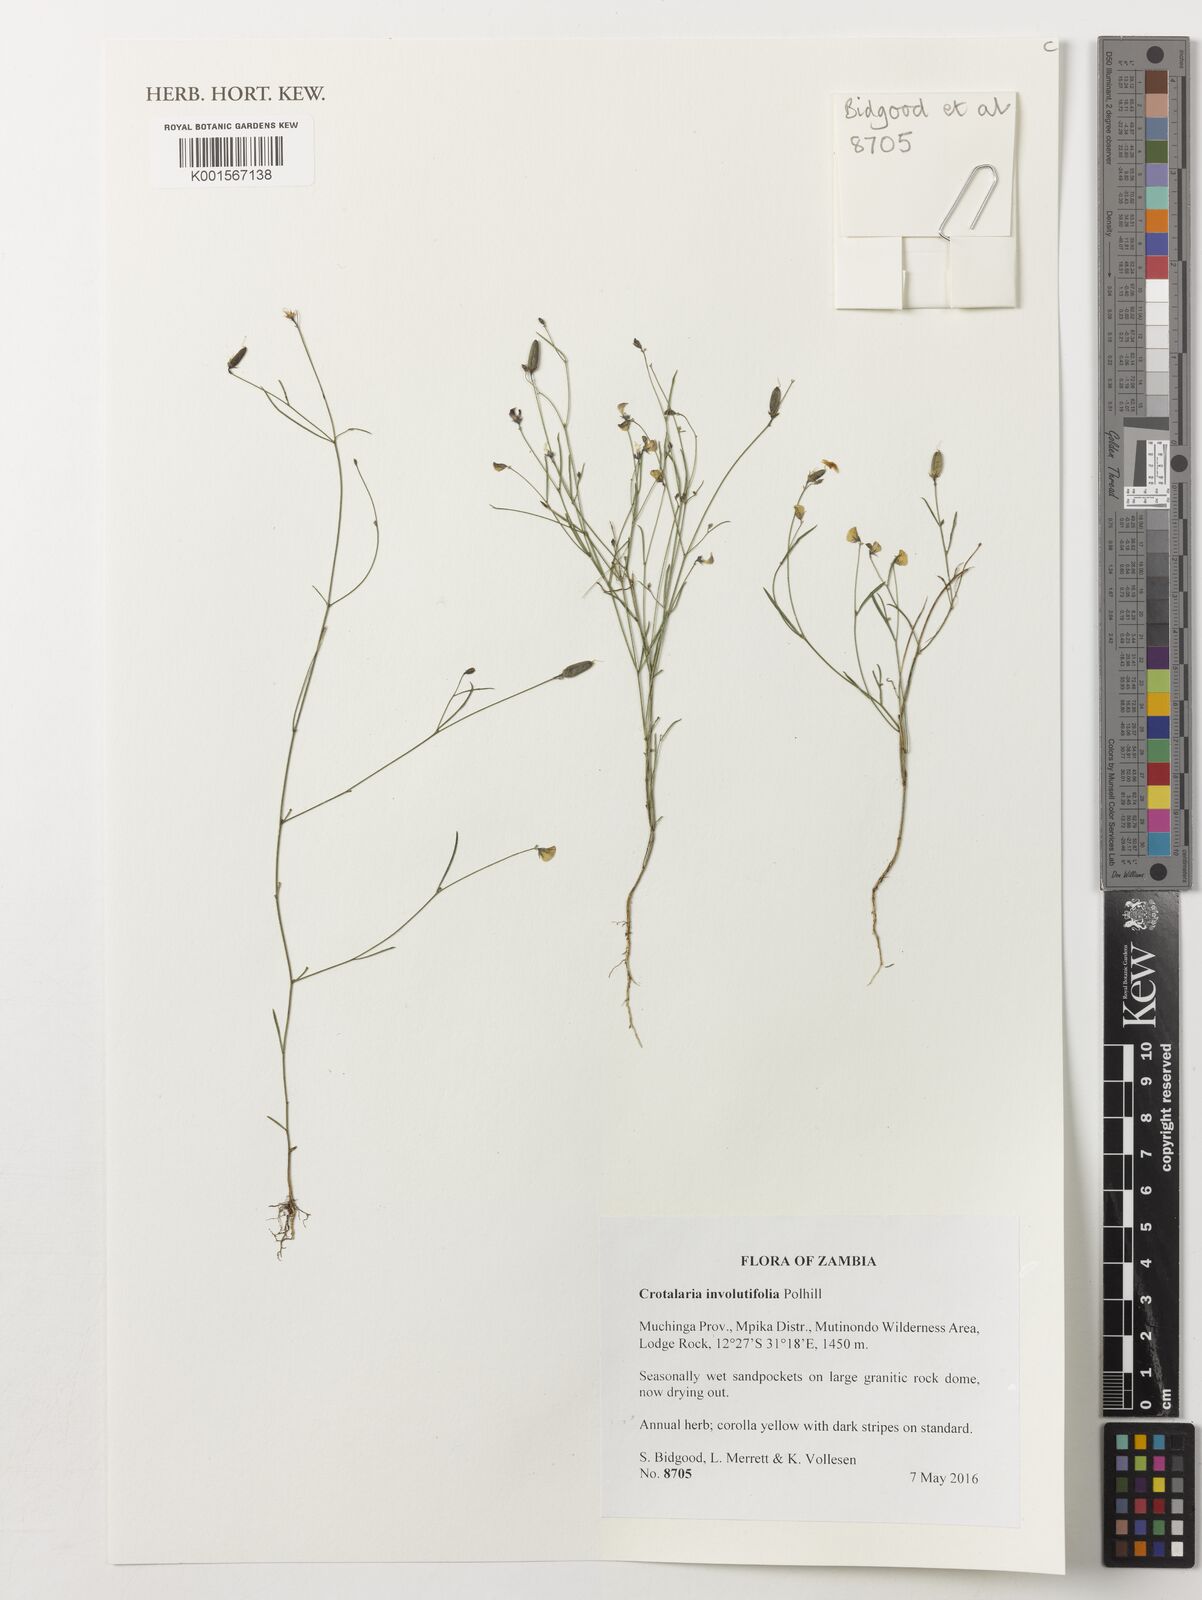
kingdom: Plantae
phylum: Tracheophyta
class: Magnoliopsida
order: Fabales
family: Fabaceae
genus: Crotalaria
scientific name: Crotalaria involutifolia
